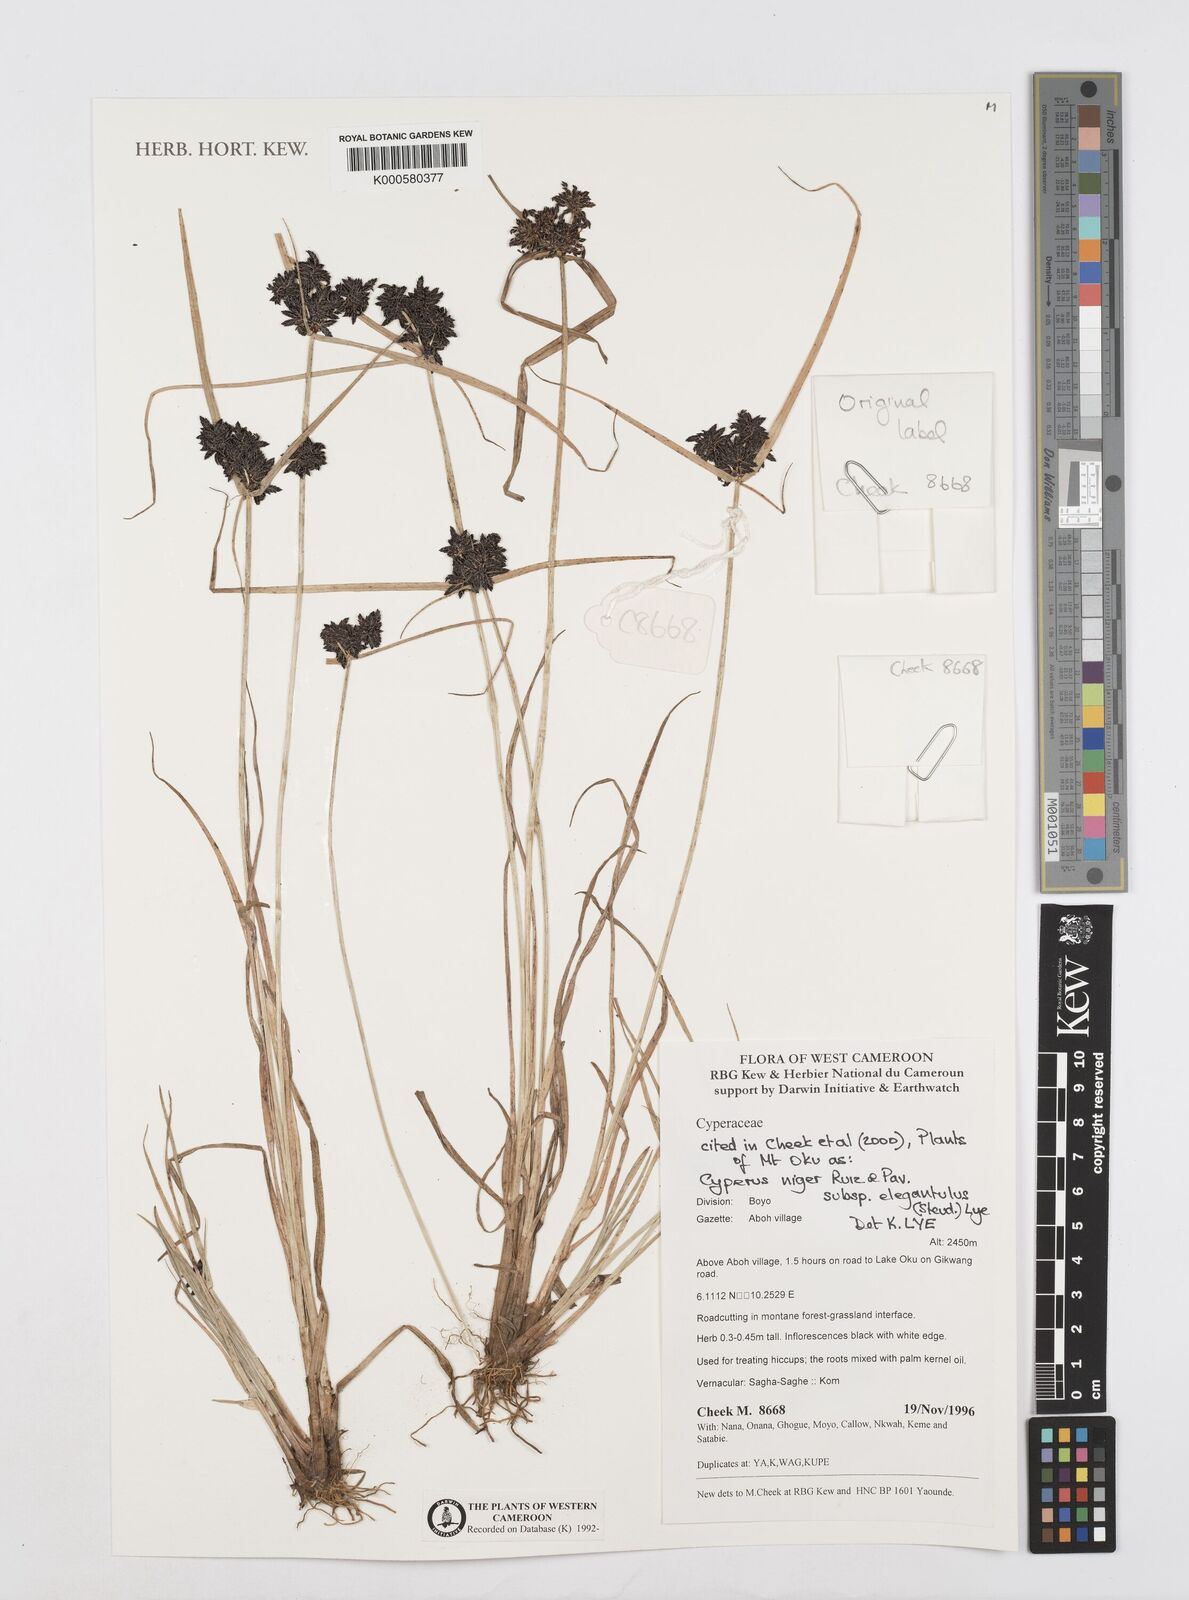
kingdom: Plantae
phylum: Tracheophyta
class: Liliopsida
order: Poales
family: Cyperaceae
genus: Cyperus
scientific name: Cyperus elegantulus
